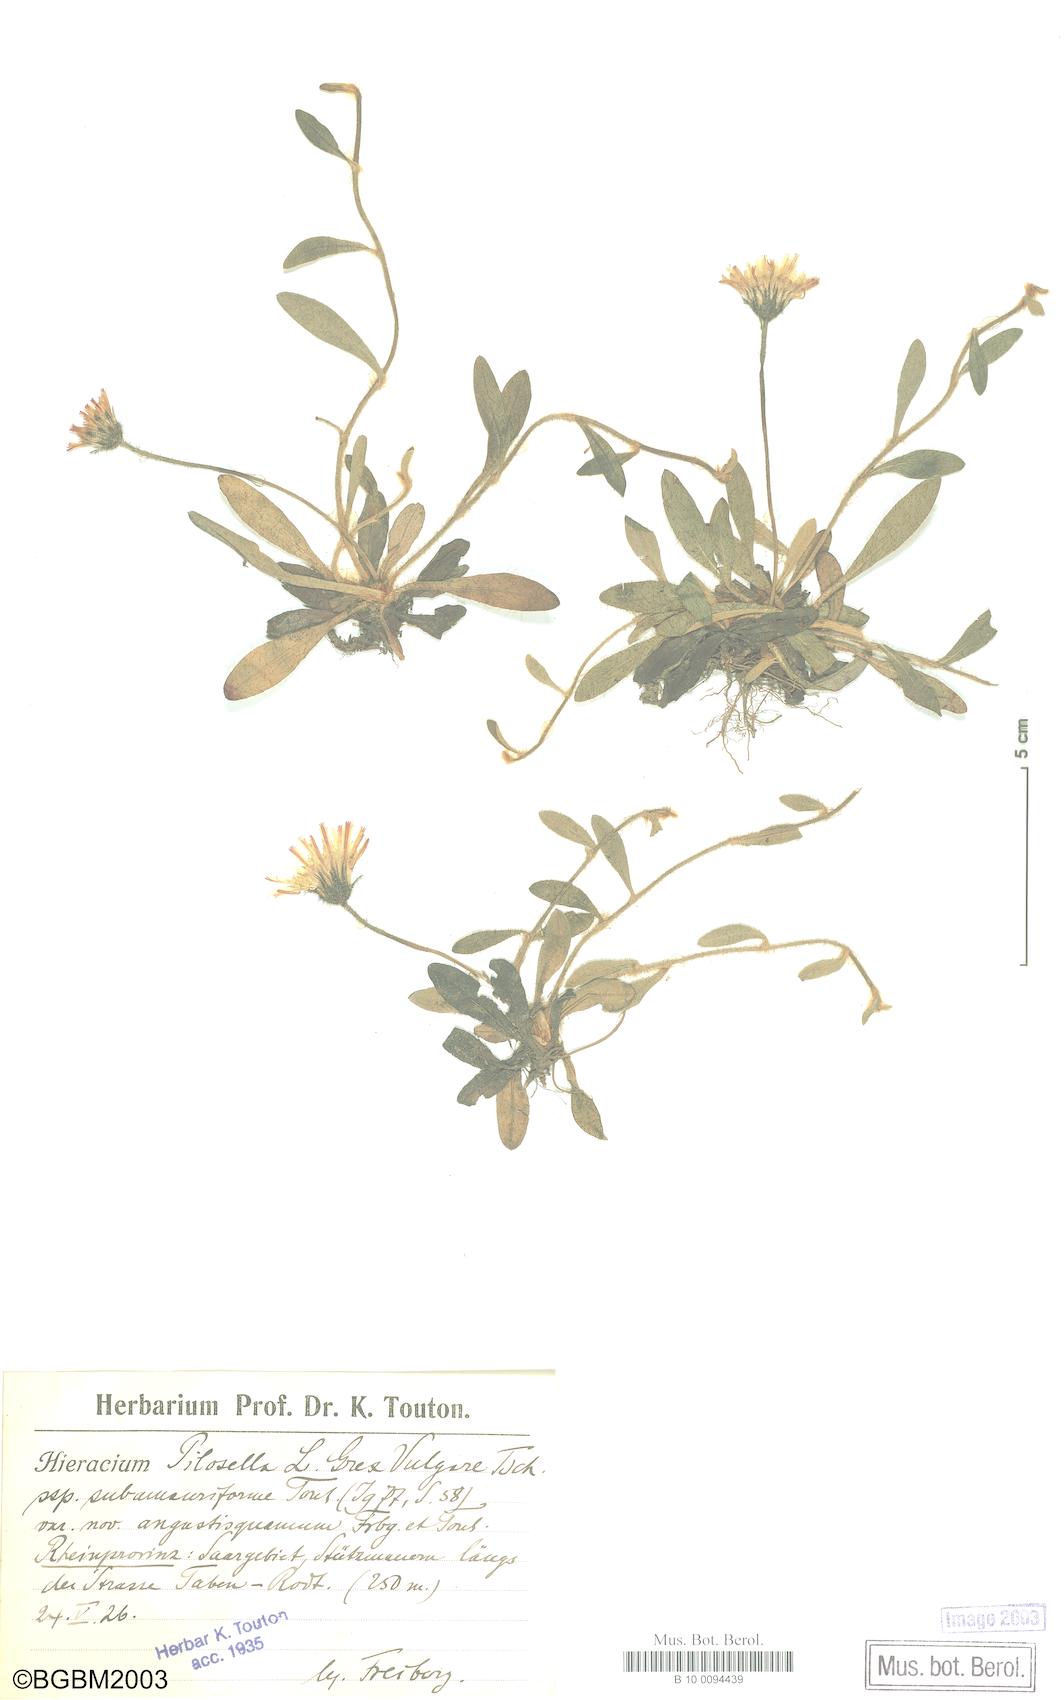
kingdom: Plantae
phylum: Tracheophyta
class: Magnoliopsida
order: Asterales
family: Asteraceae
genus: Pilosella
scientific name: Pilosella officinarum
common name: Mouse-ear hawkweed
